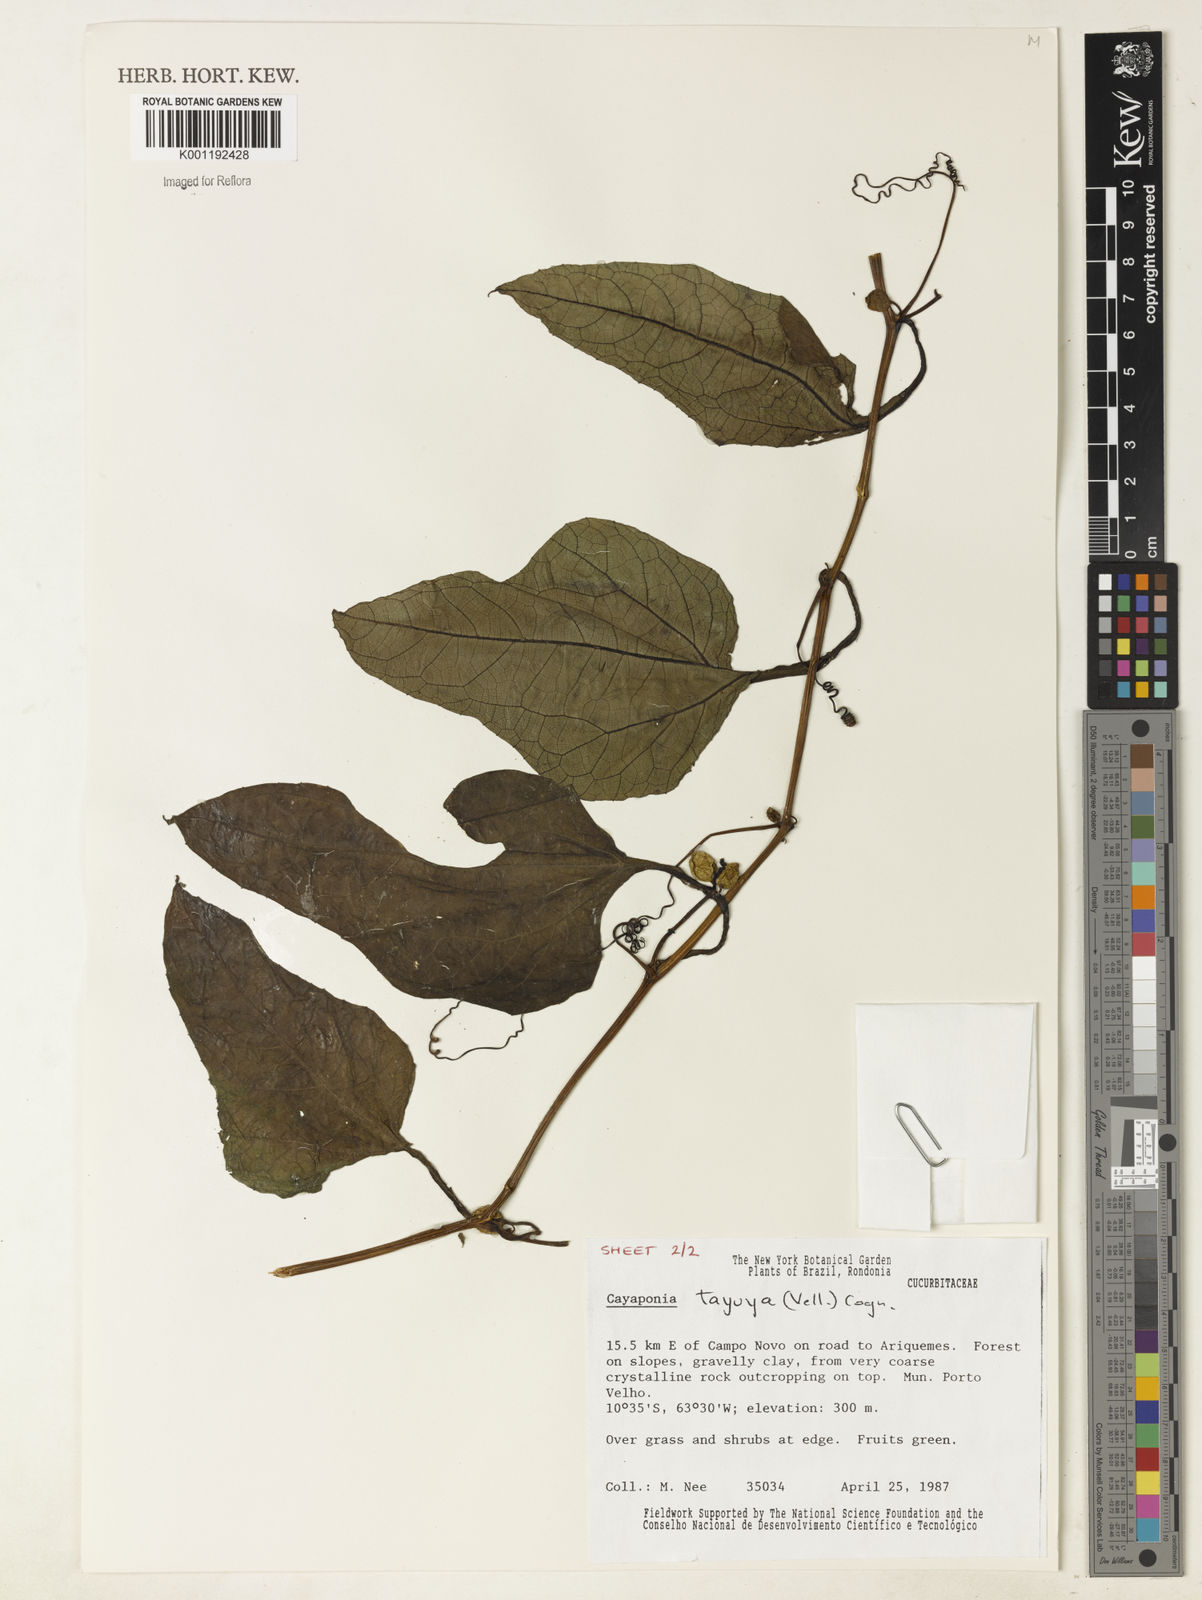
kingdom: Plantae
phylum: Tracheophyta
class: Magnoliopsida
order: Cucurbitales
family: Cucurbitaceae
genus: Cayaponia
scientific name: Cayaponia tayuya
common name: Tayuya
